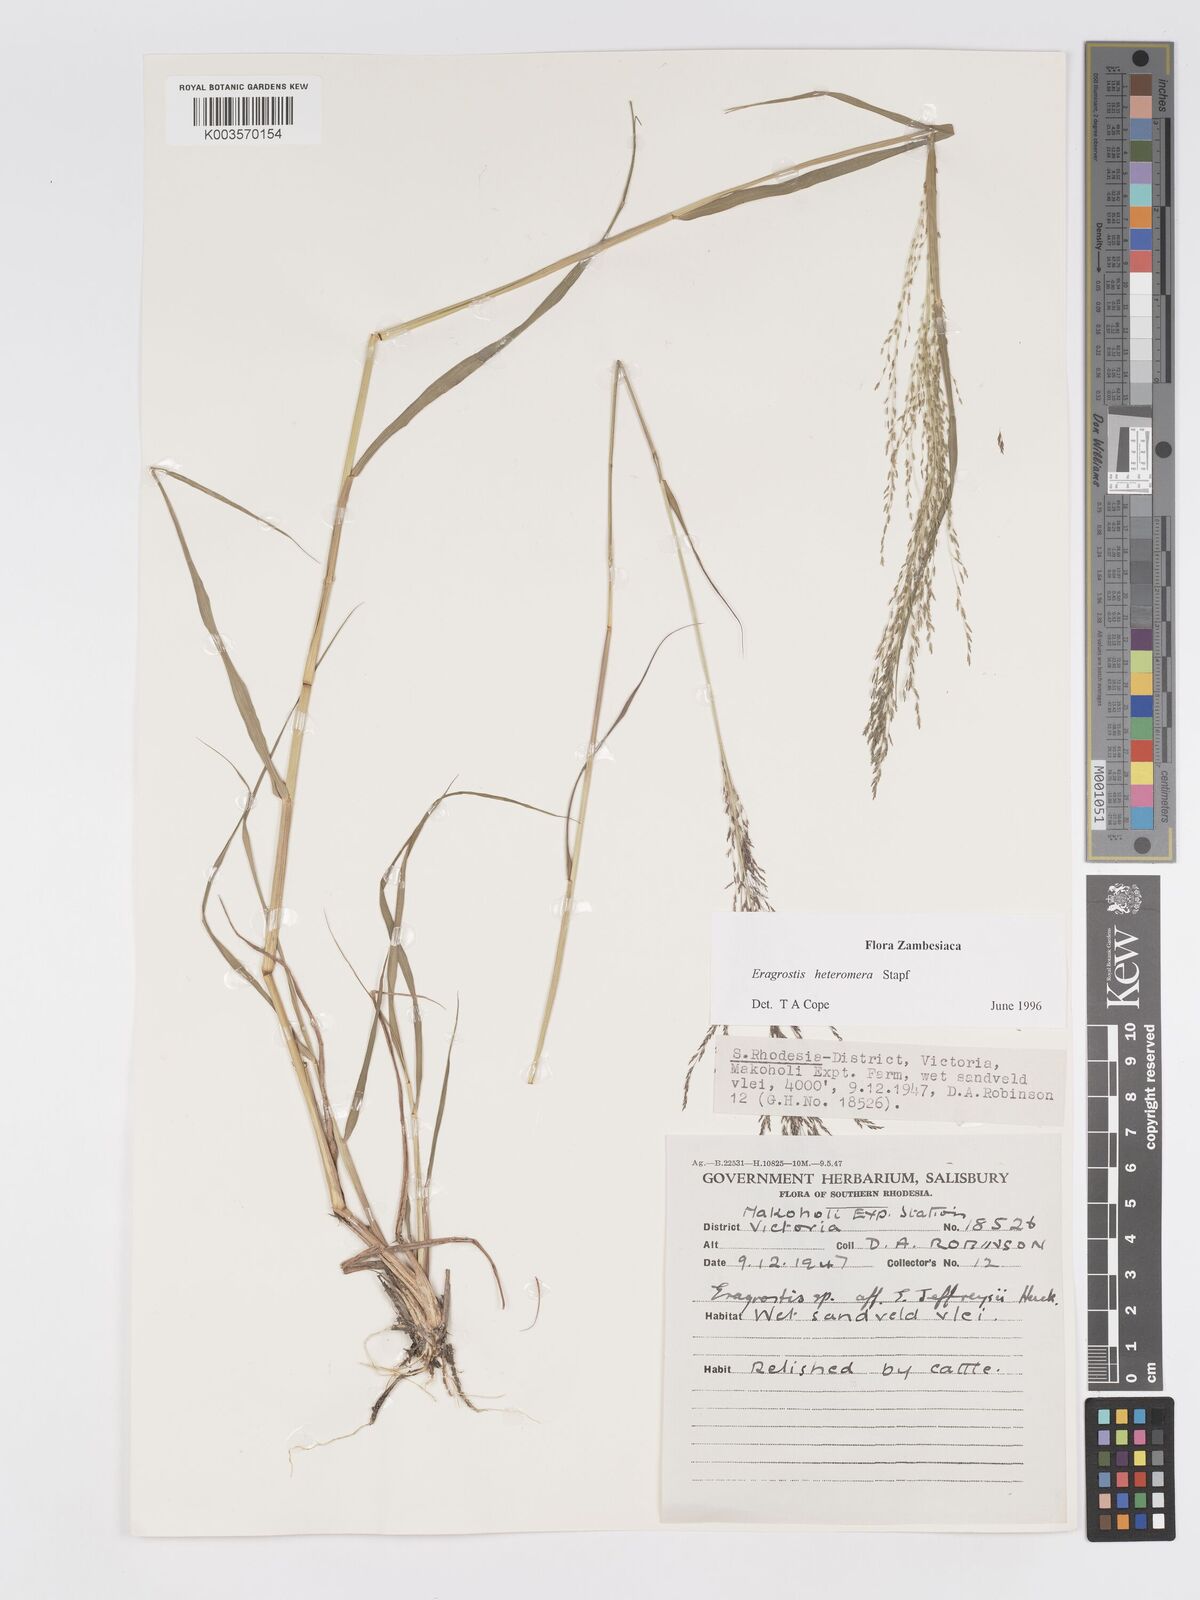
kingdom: Plantae
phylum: Tracheophyta
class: Liliopsida
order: Poales
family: Poaceae
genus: Eragrostis
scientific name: Eragrostis heteromera
